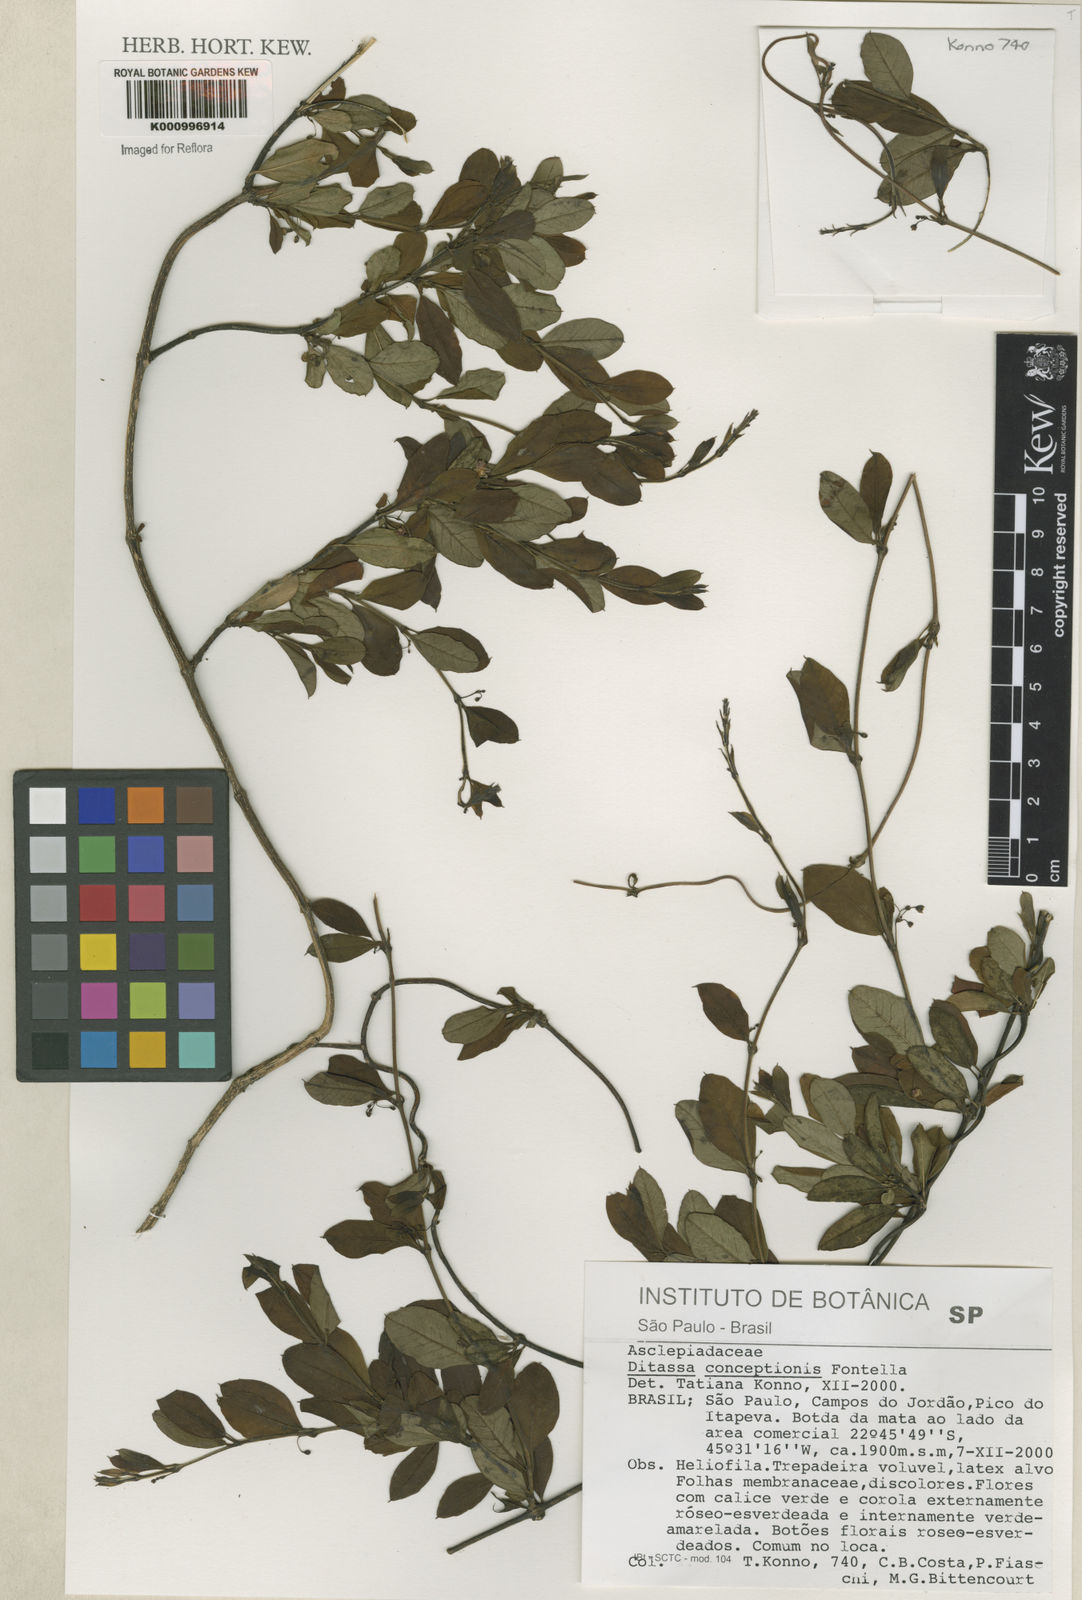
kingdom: Plantae
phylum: Tracheophyta
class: Magnoliopsida
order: Gentianales
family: Apocynaceae
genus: Ditassa
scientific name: Ditassa conceptionis
